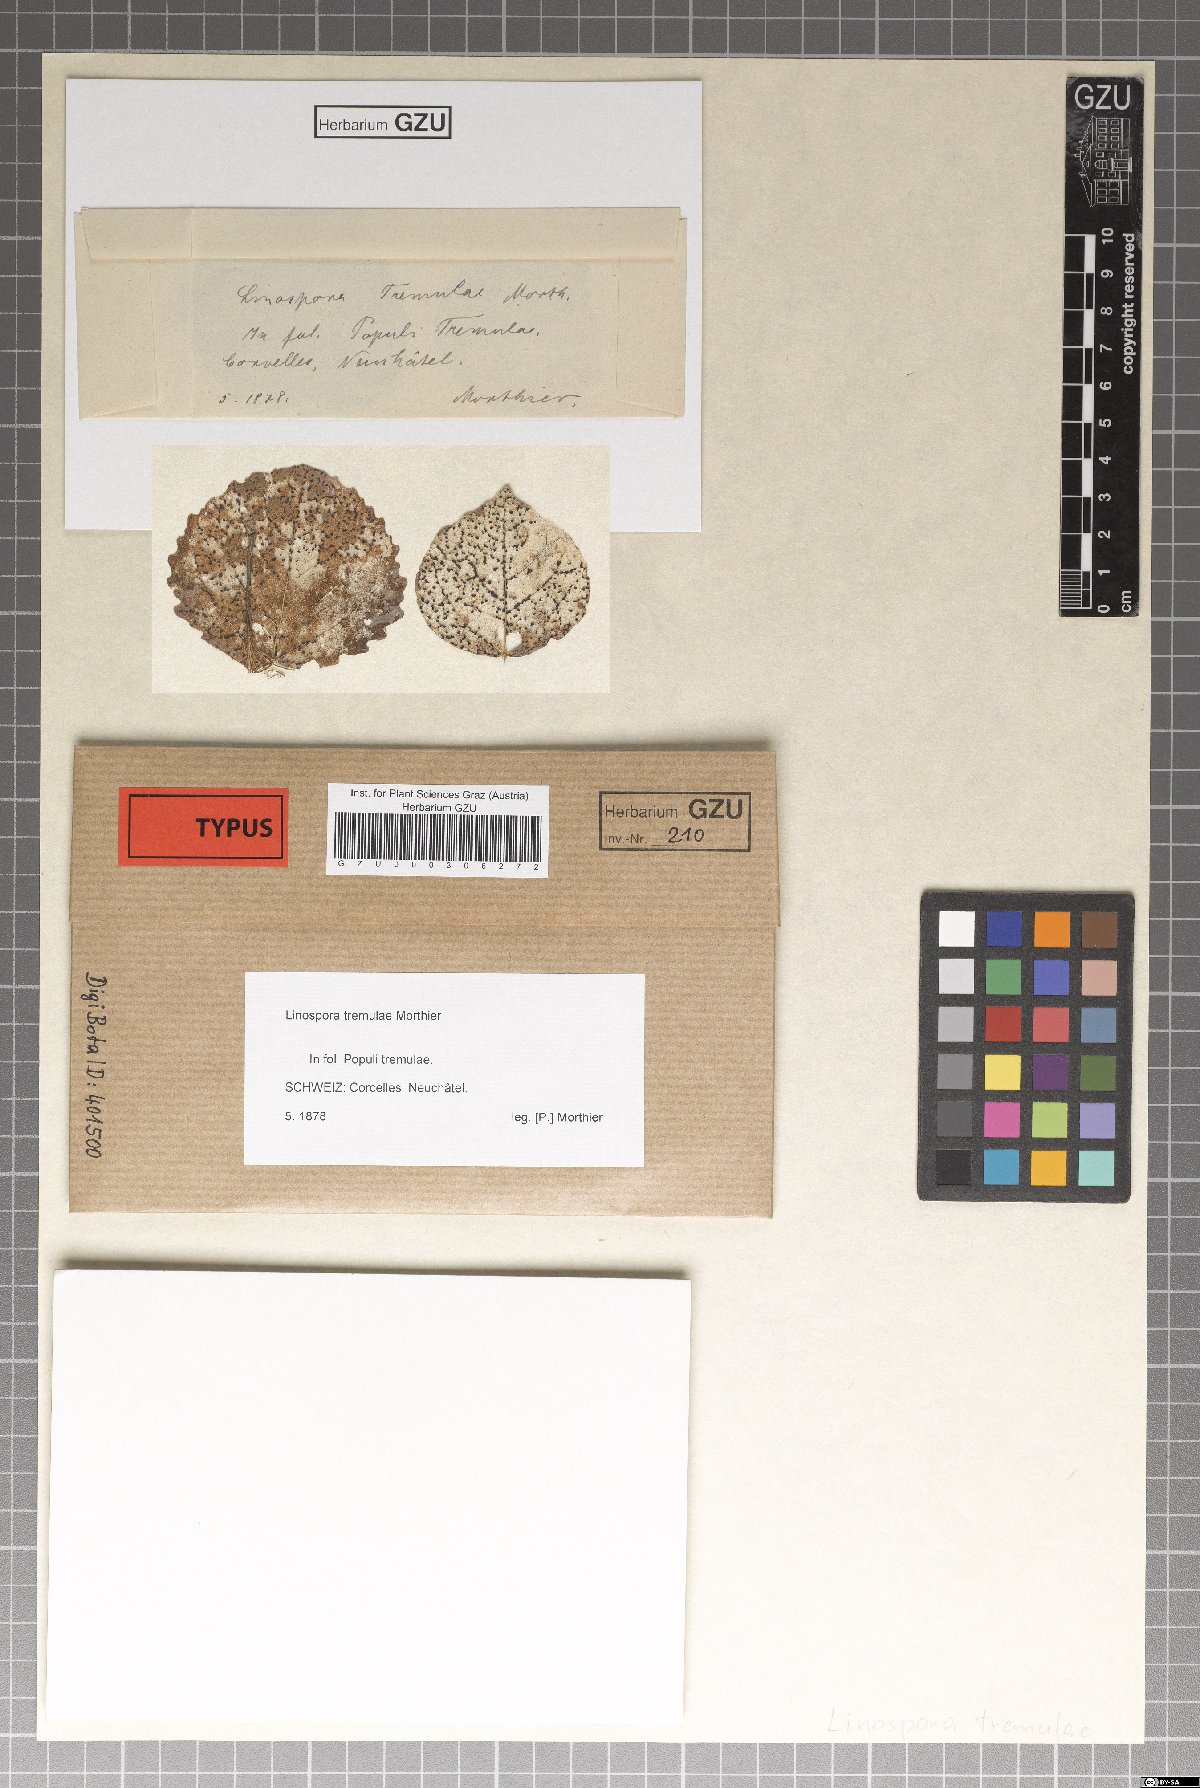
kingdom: Fungi
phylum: Ascomycota
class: Sordariomycetes
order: Diaporthales
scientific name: Diaporthales
